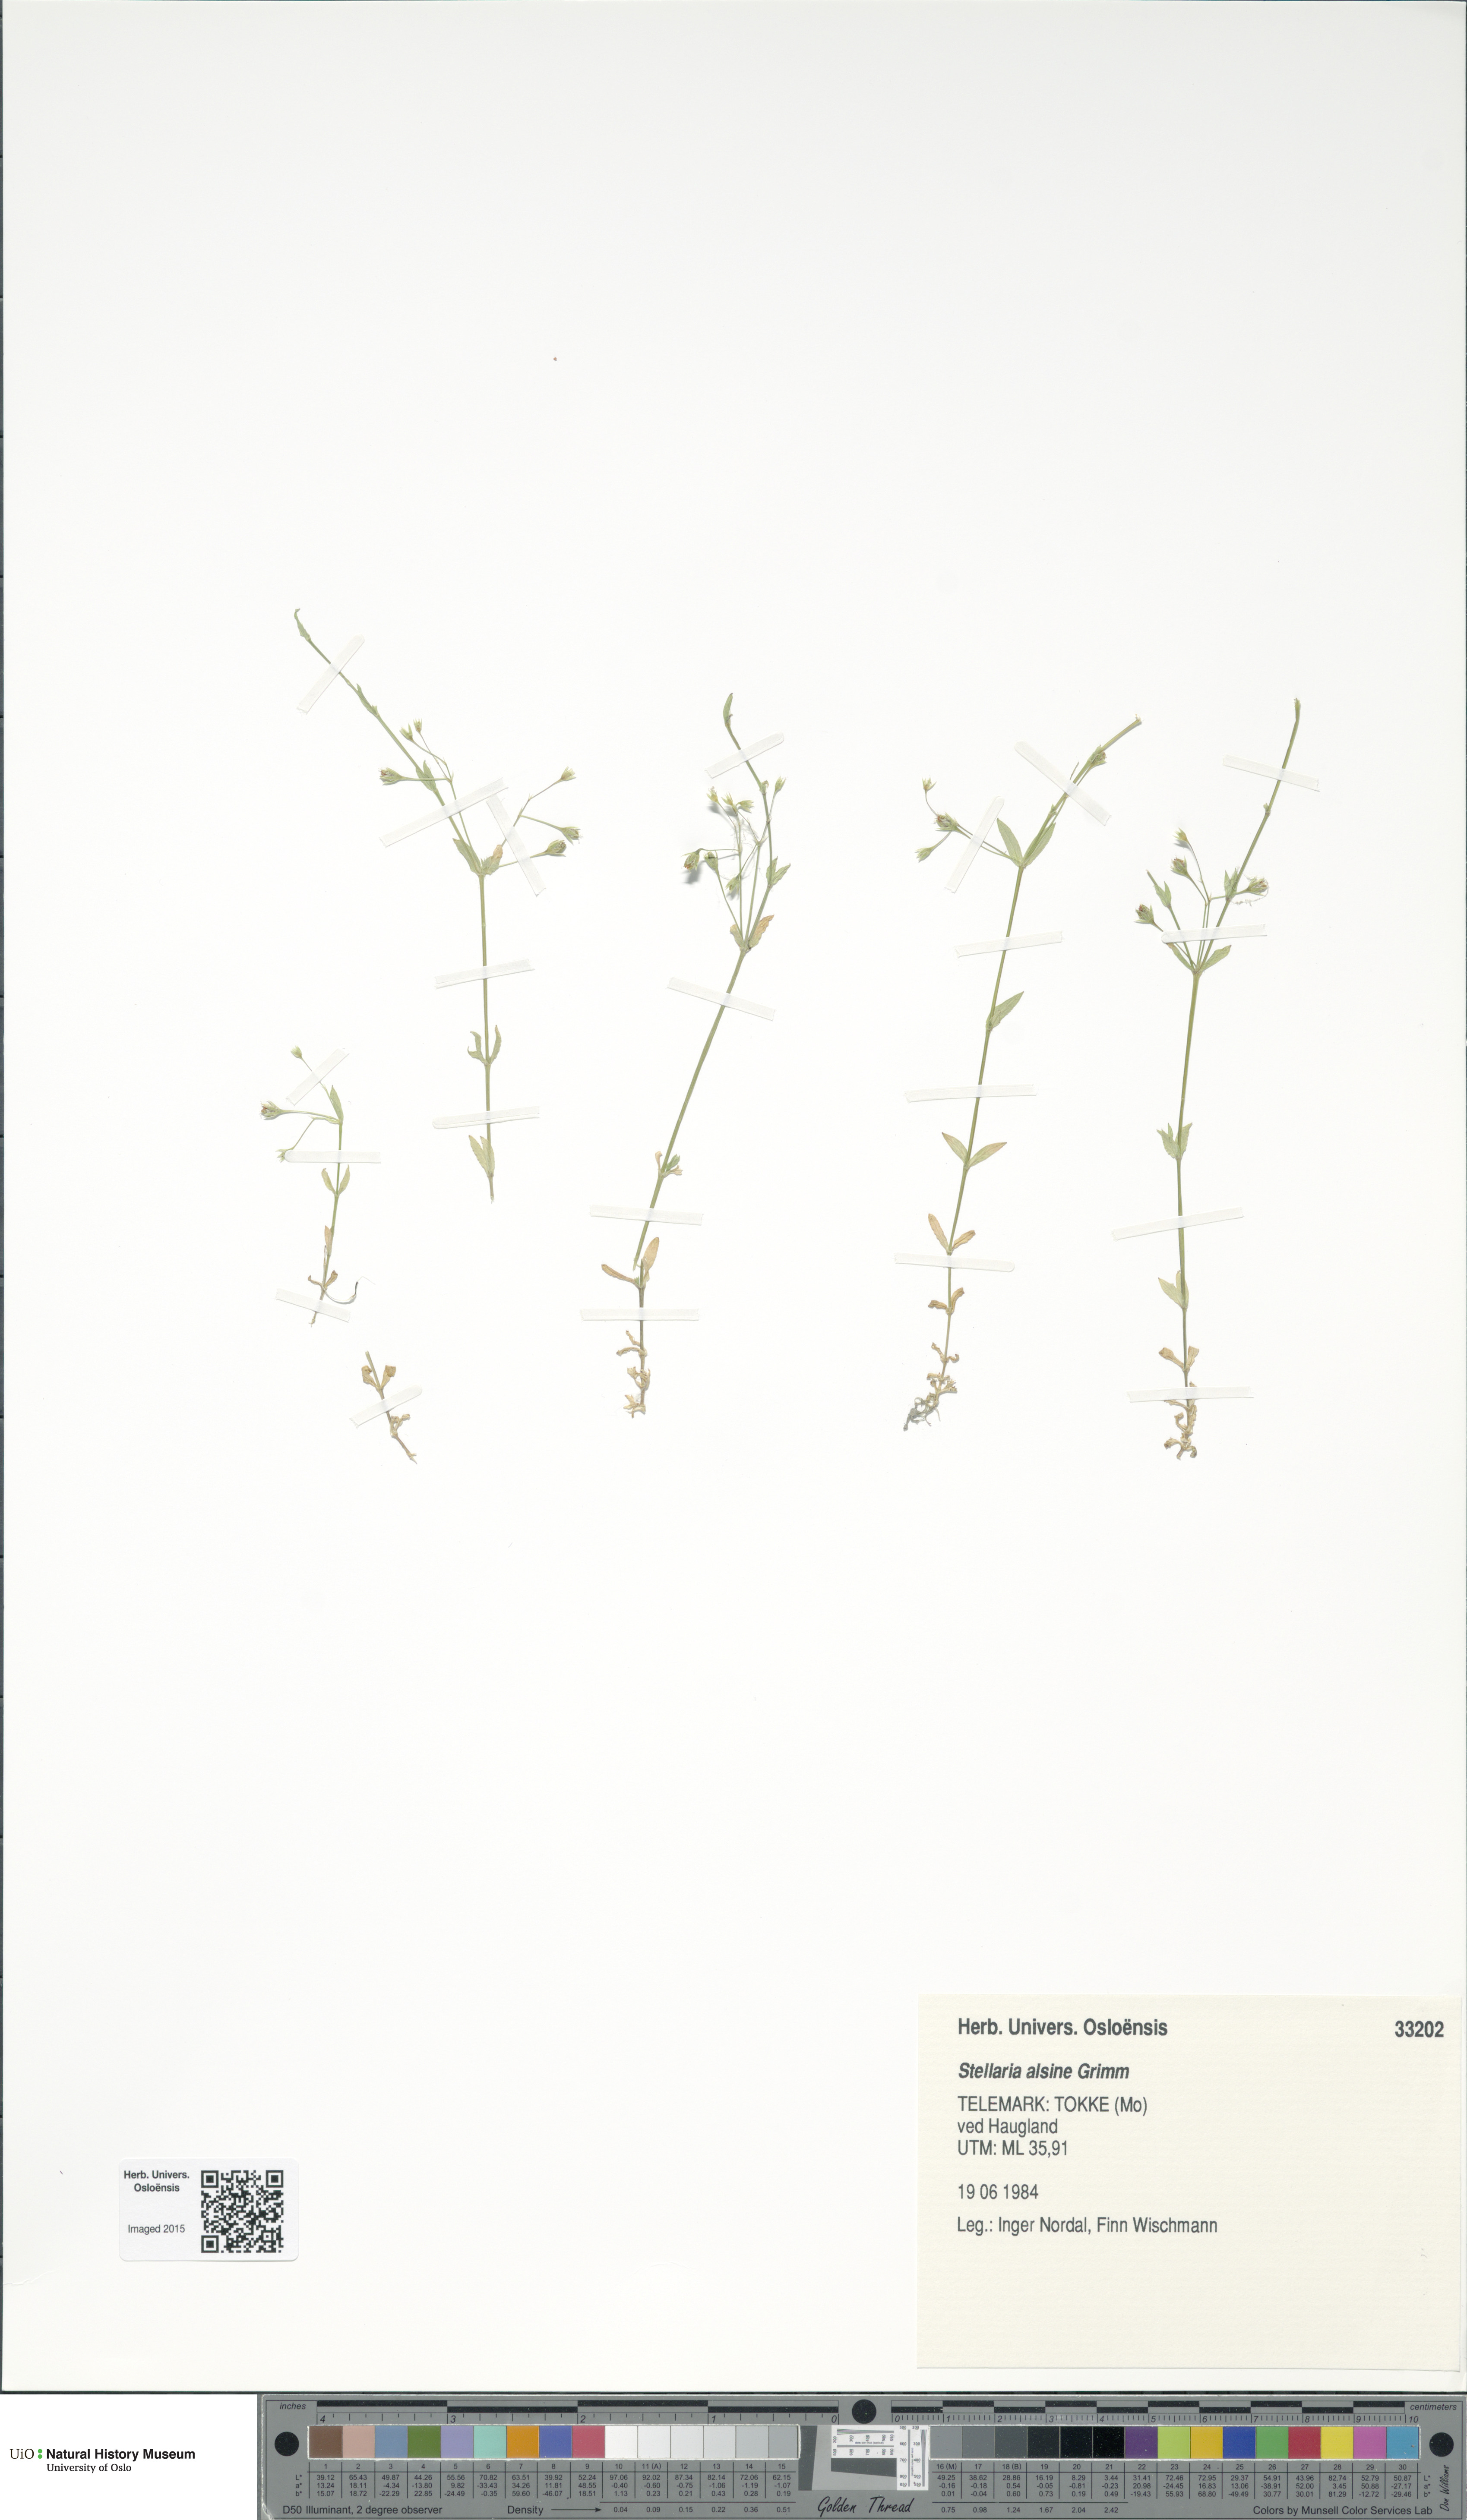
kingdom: Plantae
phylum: Tracheophyta
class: Magnoliopsida
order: Caryophyllales
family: Caryophyllaceae
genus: Stellaria
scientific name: Stellaria alsine
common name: Bog stitchwort
